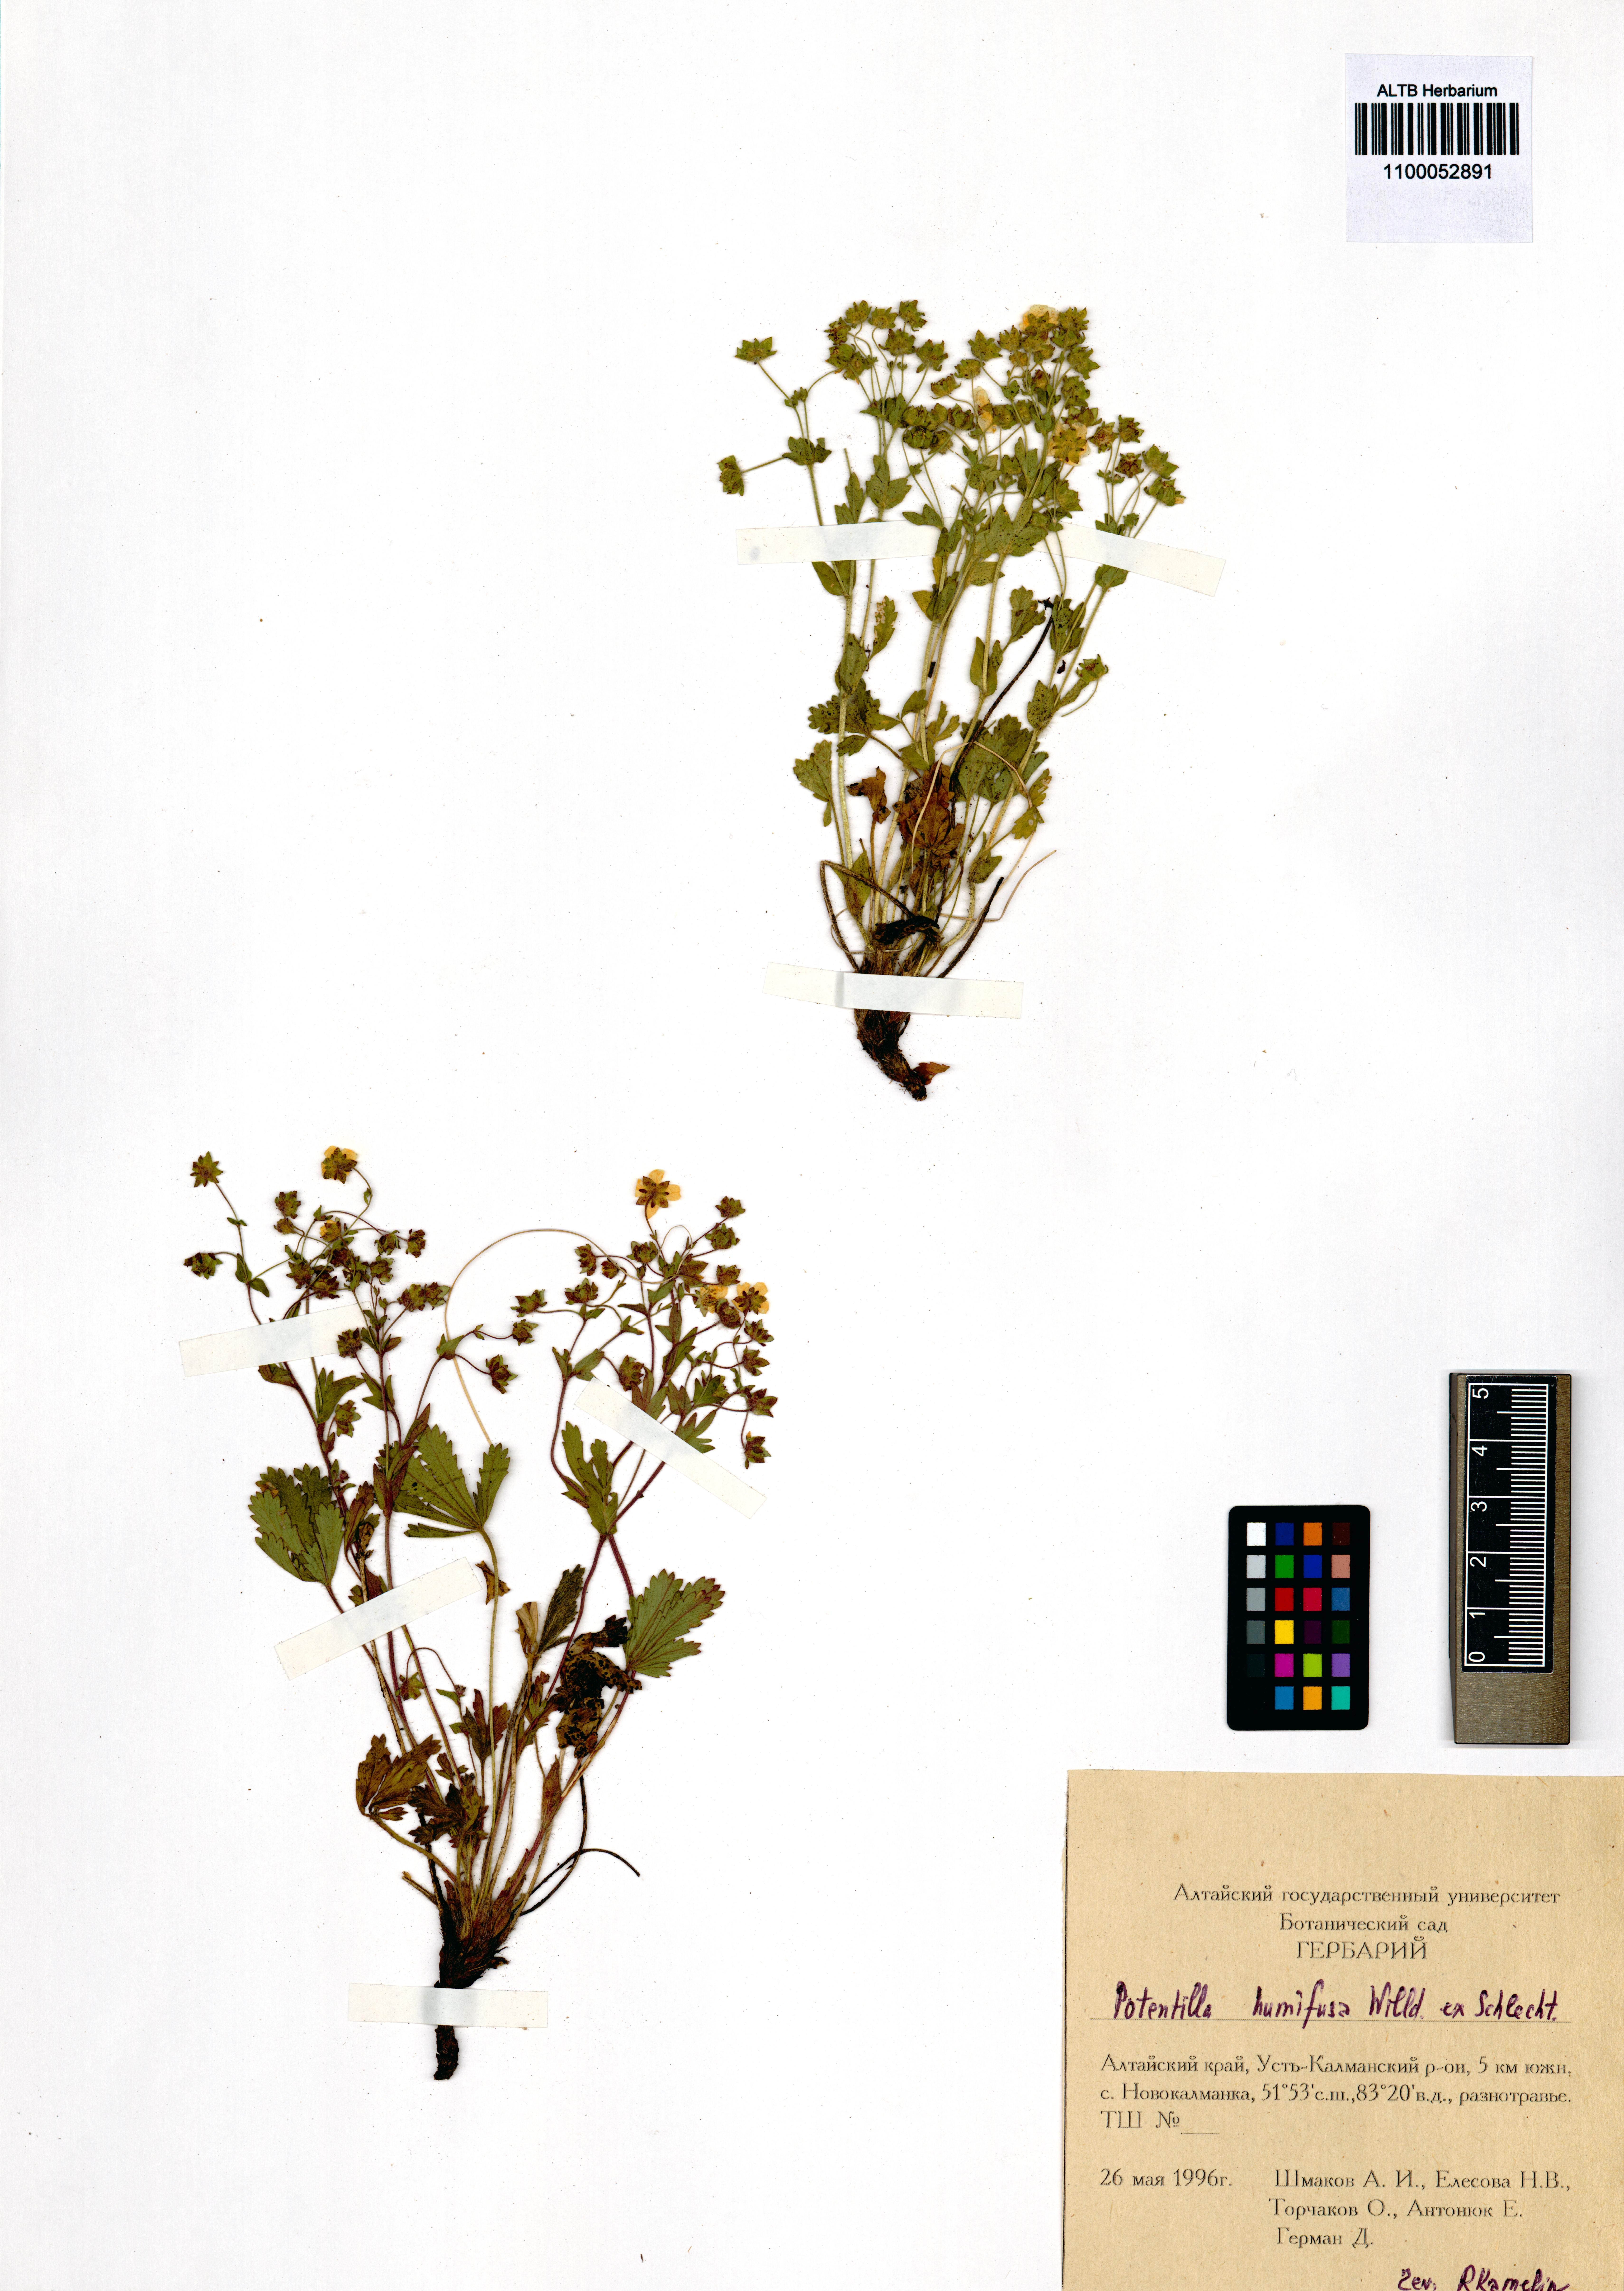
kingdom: Plantae
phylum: Tracheophyta
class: Magnoliopsida
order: Rosales
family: Rosaceae
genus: Potentilla
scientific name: Potentilla humifusa
